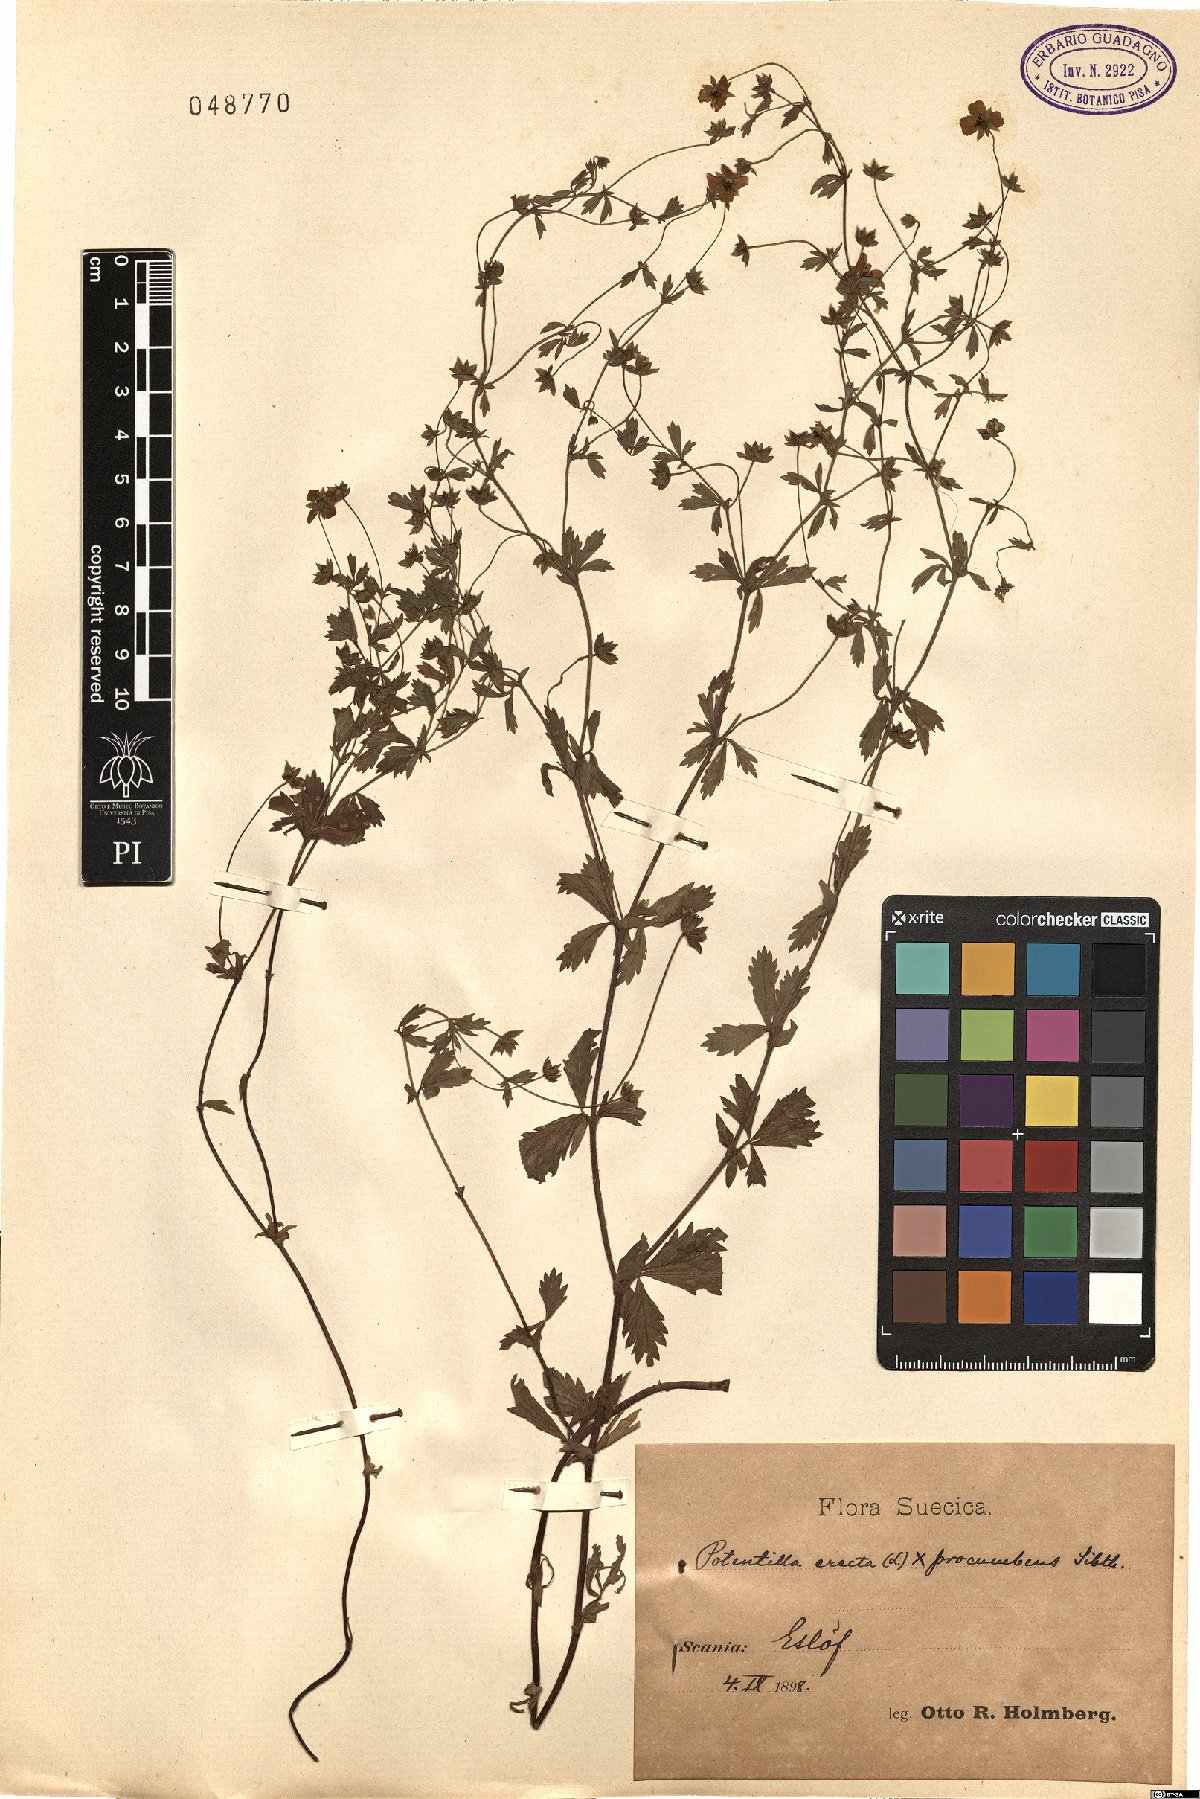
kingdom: Plantae
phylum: Tracheophyta
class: Magnoliopsida
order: Rosales
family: Rosaceae
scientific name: Rosaceae
